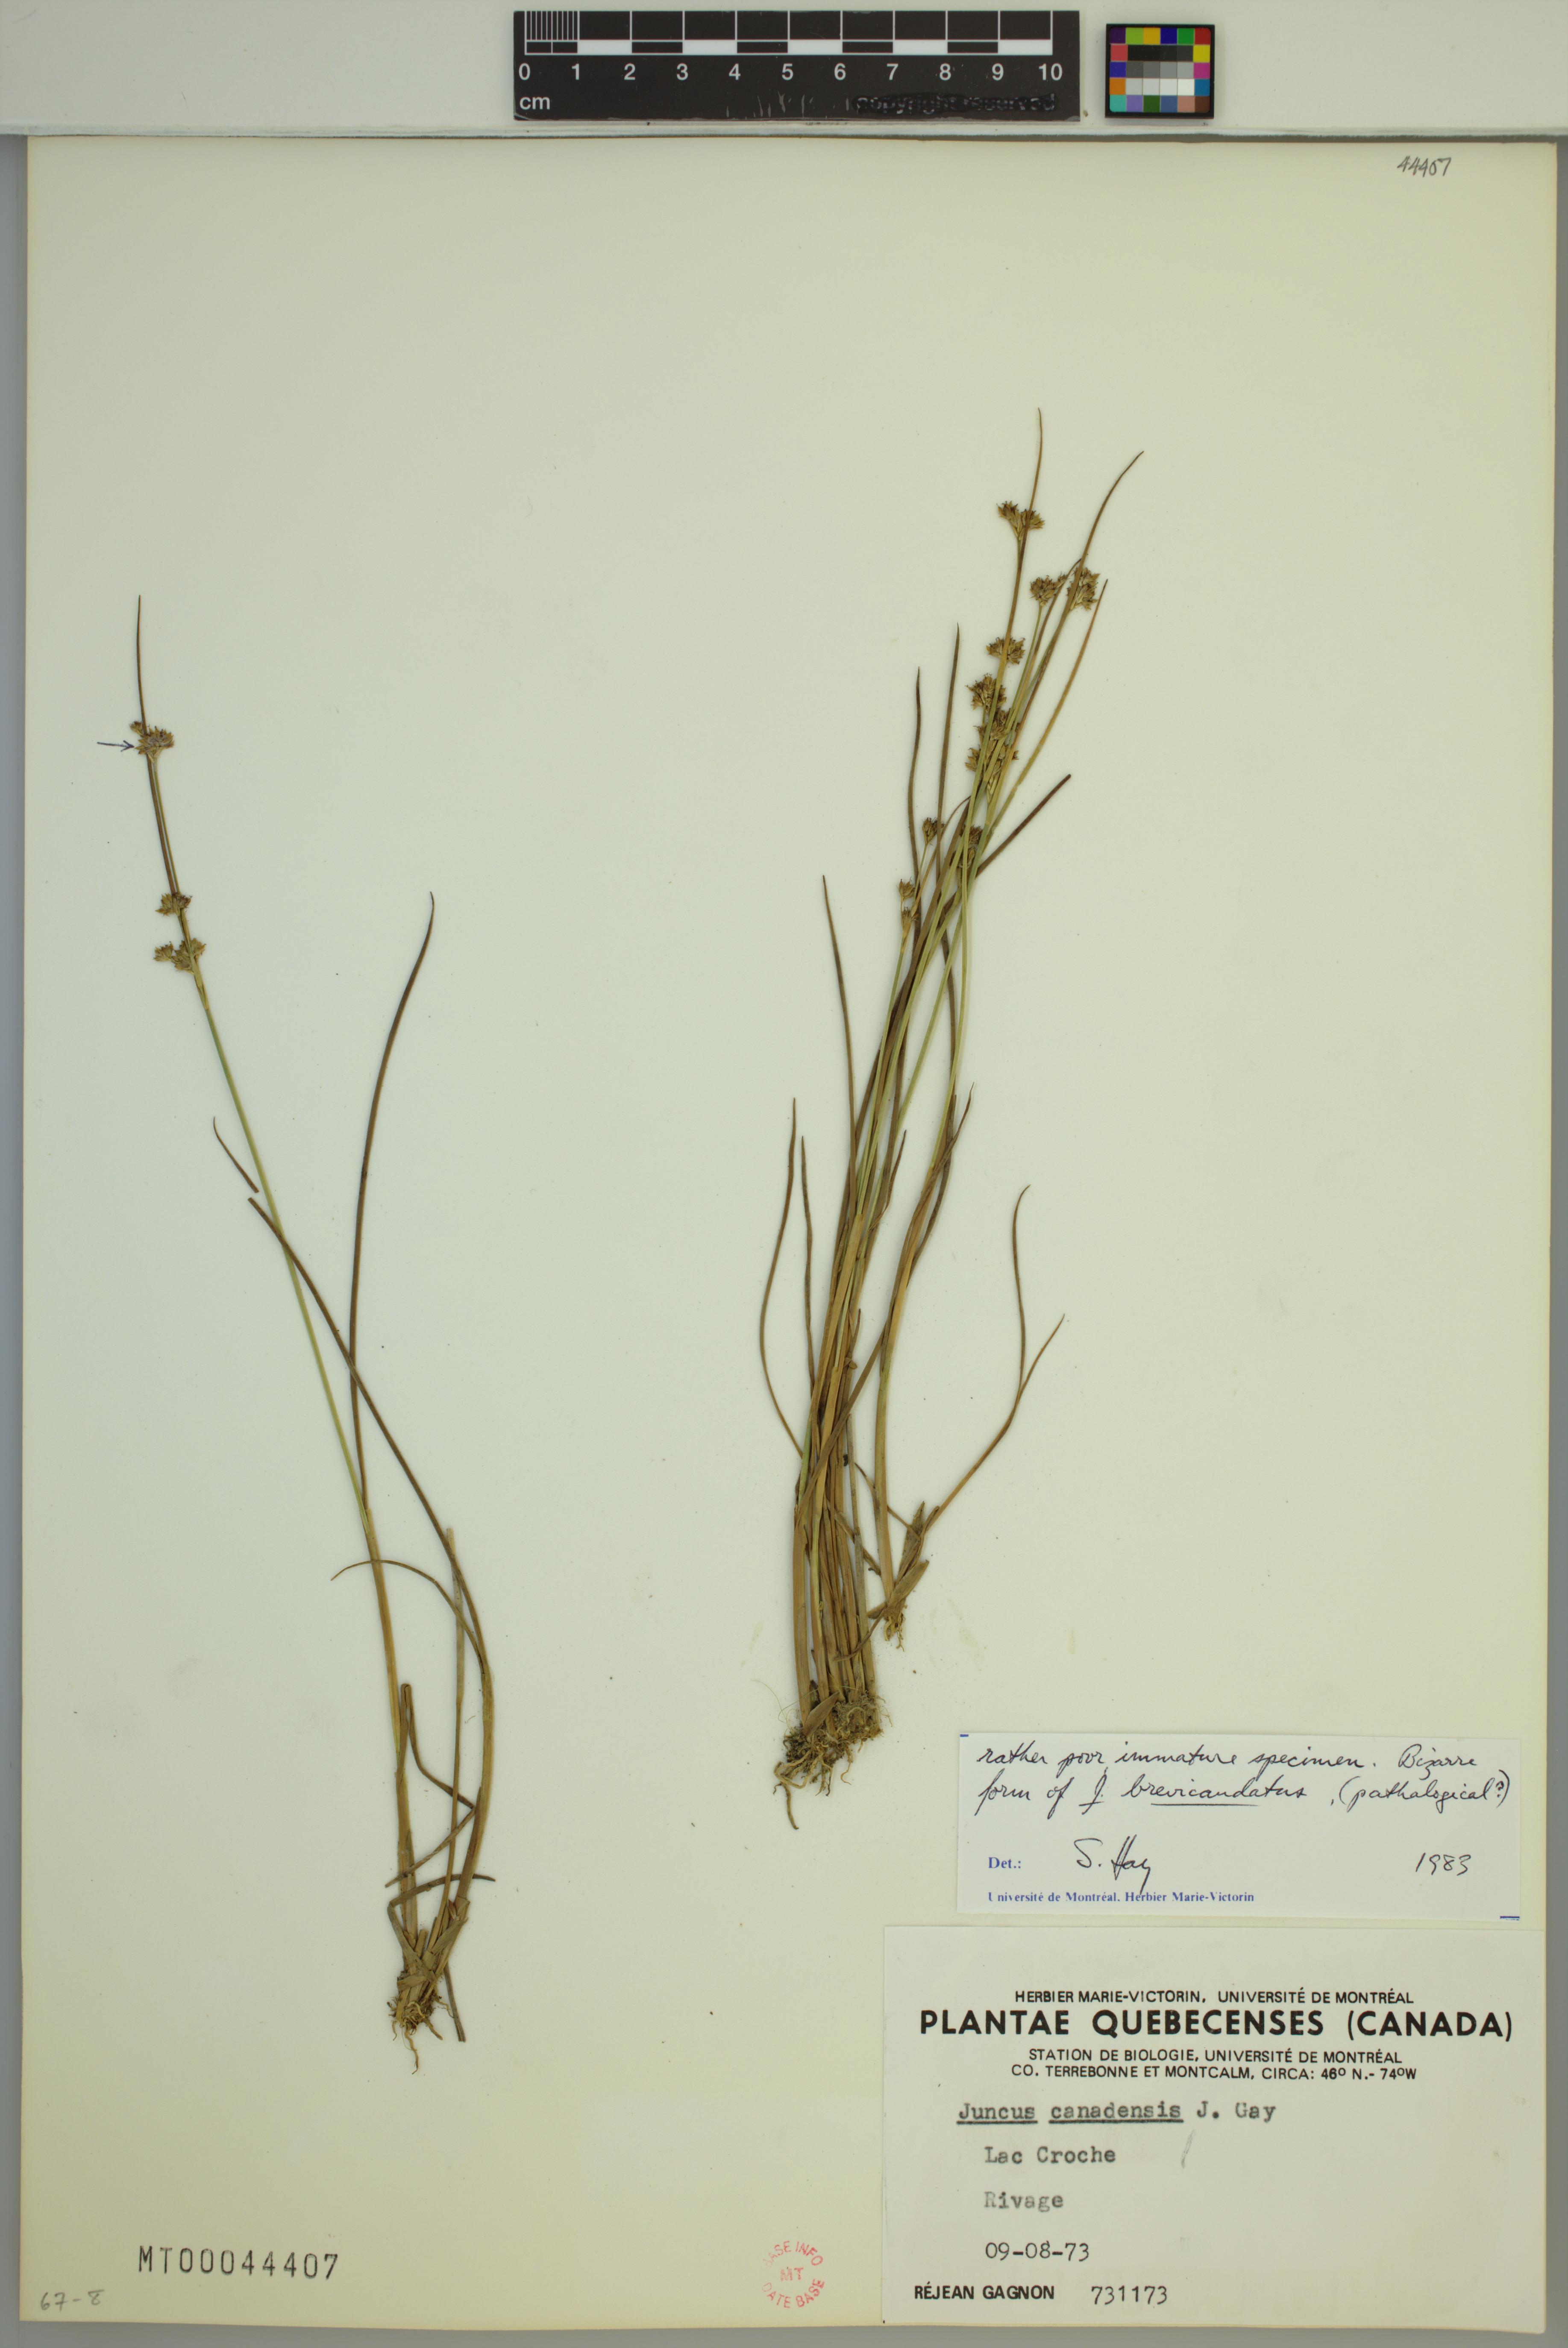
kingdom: Plantae
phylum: Tracheophyta
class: Liliopsida
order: Poales
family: Juncaceae
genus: Juncus
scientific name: Juncus brevicaudatus
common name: Narrow-panicle rush
